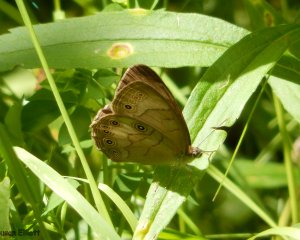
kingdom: Animalia
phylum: Arthropoda
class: Insecta
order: Lepidoptera
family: Nymphalidae
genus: Lethe
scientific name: Lethe eurydice
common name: Appalachian Eyed Brown
